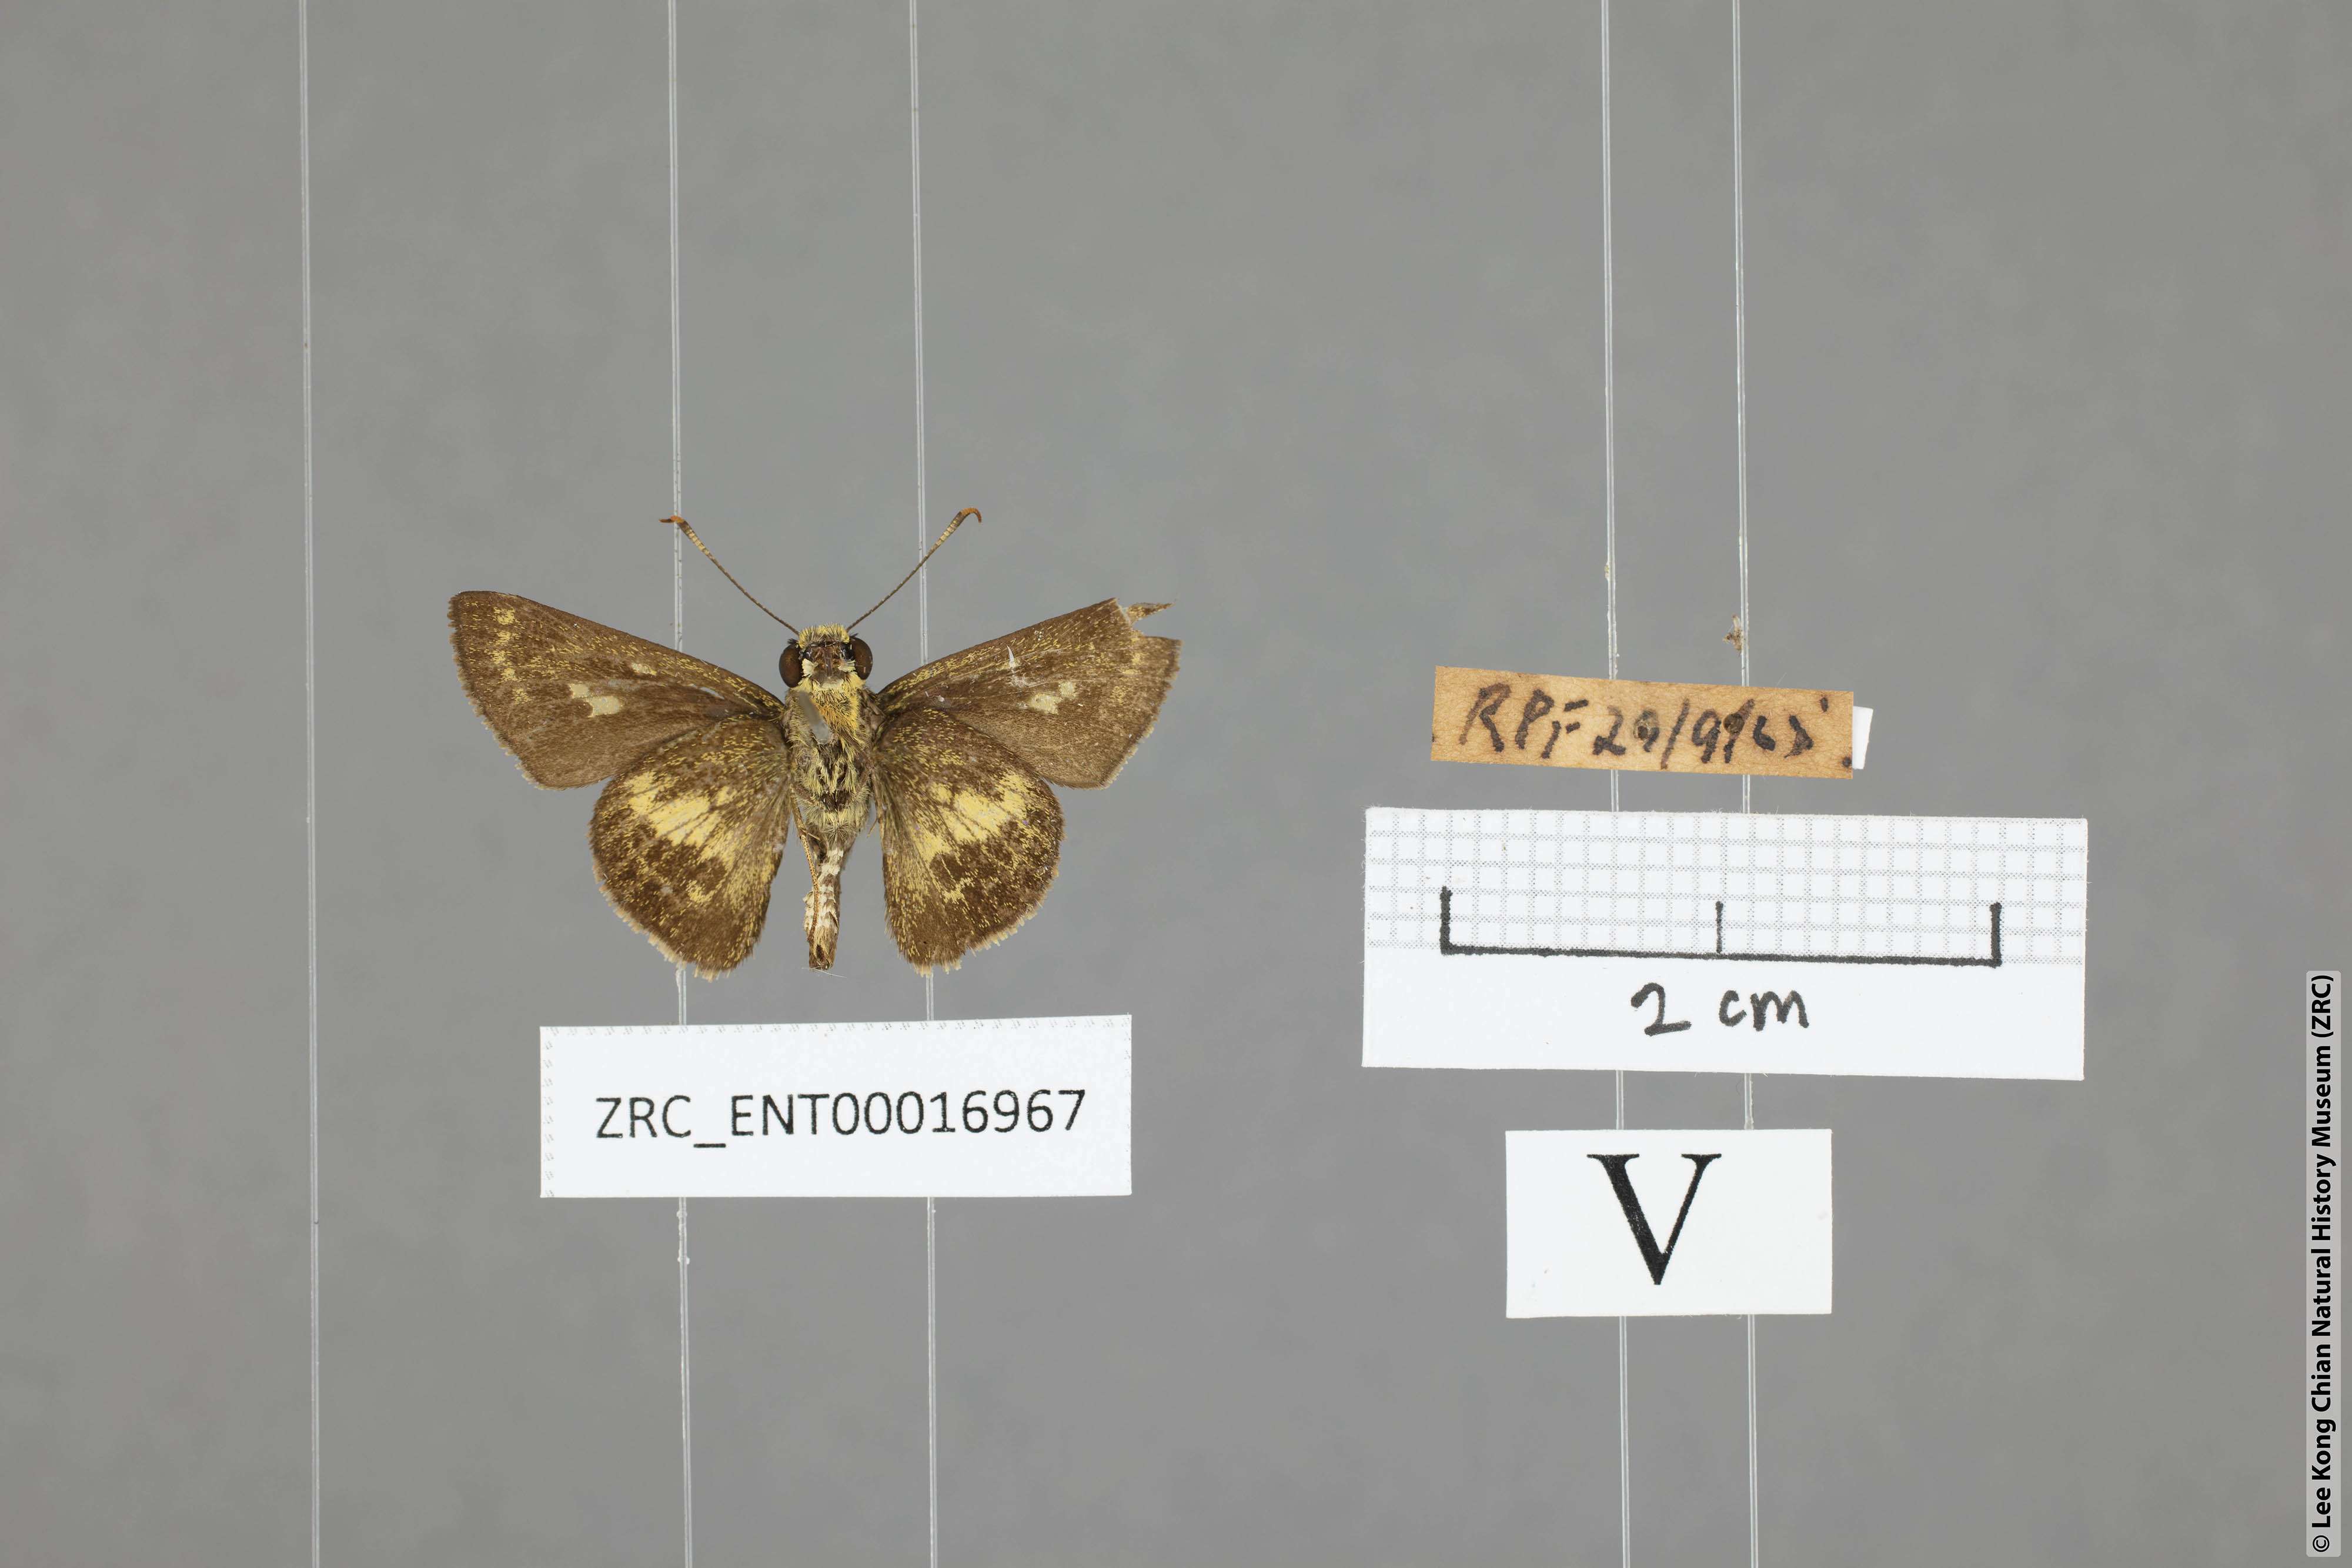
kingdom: Animalia
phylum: Arthropoda
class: Insecta
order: Lepidoptera
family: Hesperiidae
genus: Halpe
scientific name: Halpe auriferus
